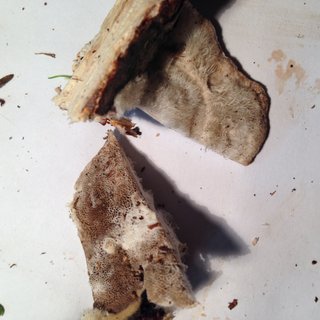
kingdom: Fungi
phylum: Basidiomycota
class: Agaricomycetes
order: Polyporales
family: Polyporaceae
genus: Trametes
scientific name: Trametes hirsuta
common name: håret læderporesvamp
